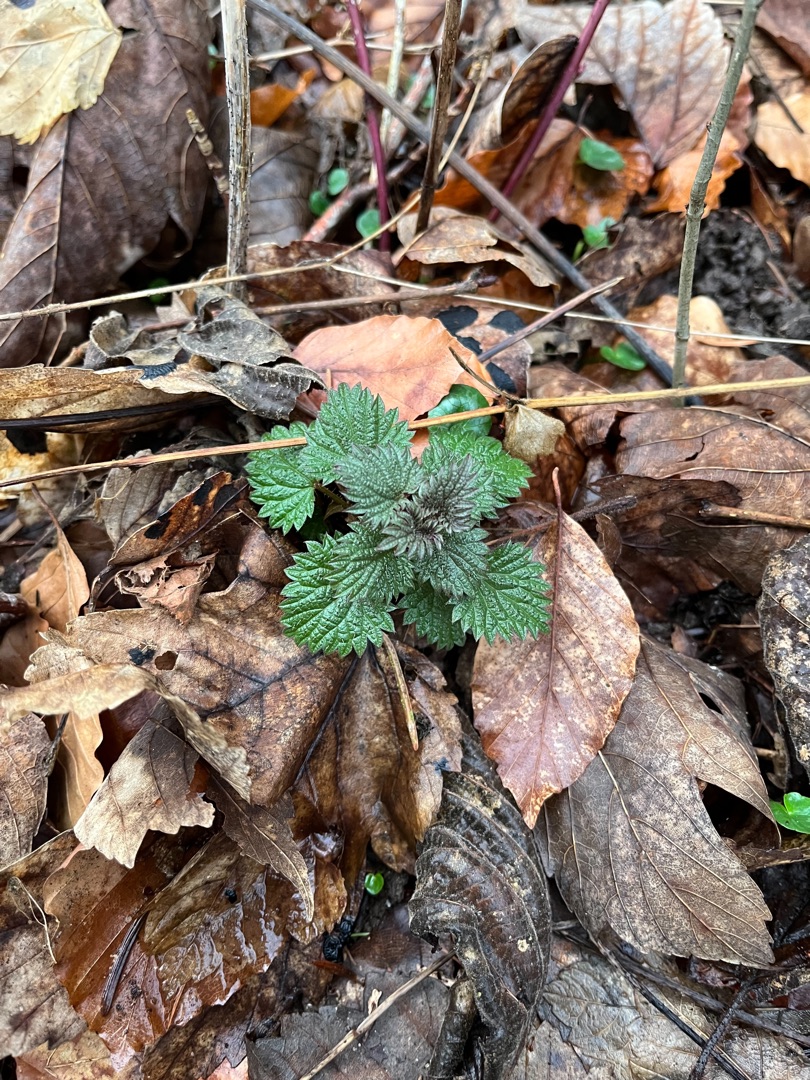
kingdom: Plantae
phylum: Tracheophyta
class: Magnoliopsida
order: Rosales
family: Urticaceae
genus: Urtica
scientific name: Urtica dioica
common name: Stor nælde
